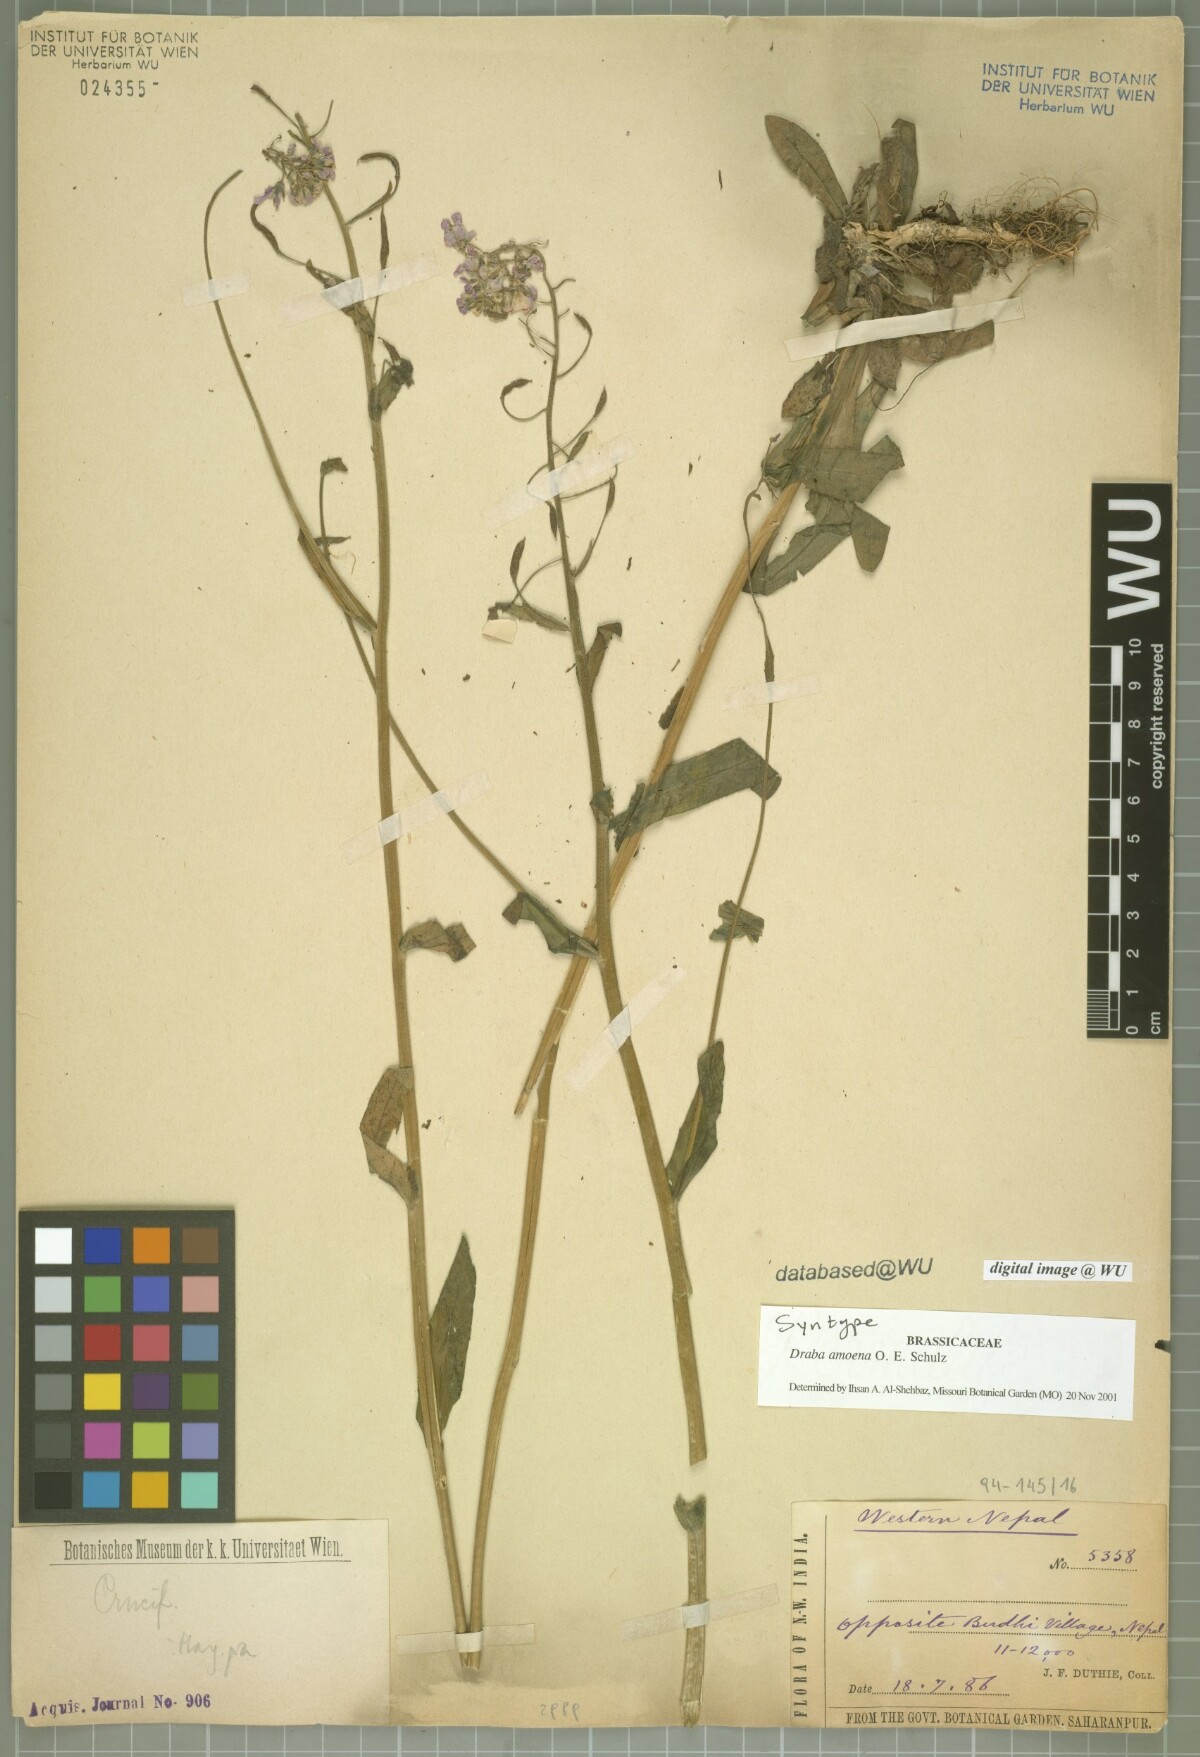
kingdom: Plantae
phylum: Tracheophyta
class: Magnoliopsida
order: Brassicales
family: Brassicaceae
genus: Draba
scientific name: Draba amoena
